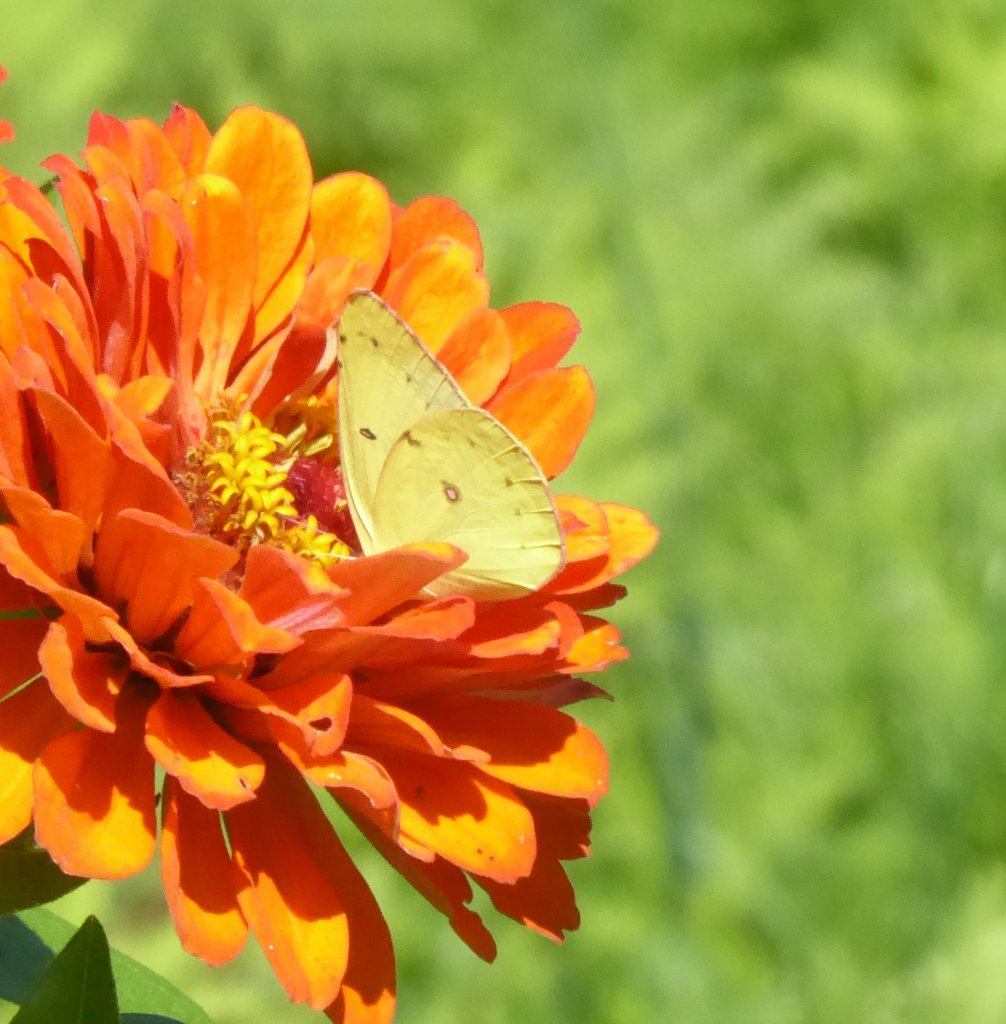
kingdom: Animalia
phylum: Arthropoda
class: Insecta
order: Lepidoptera
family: Pieridae
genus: Colias
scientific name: Colias philodice
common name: Clouded Sulphur
